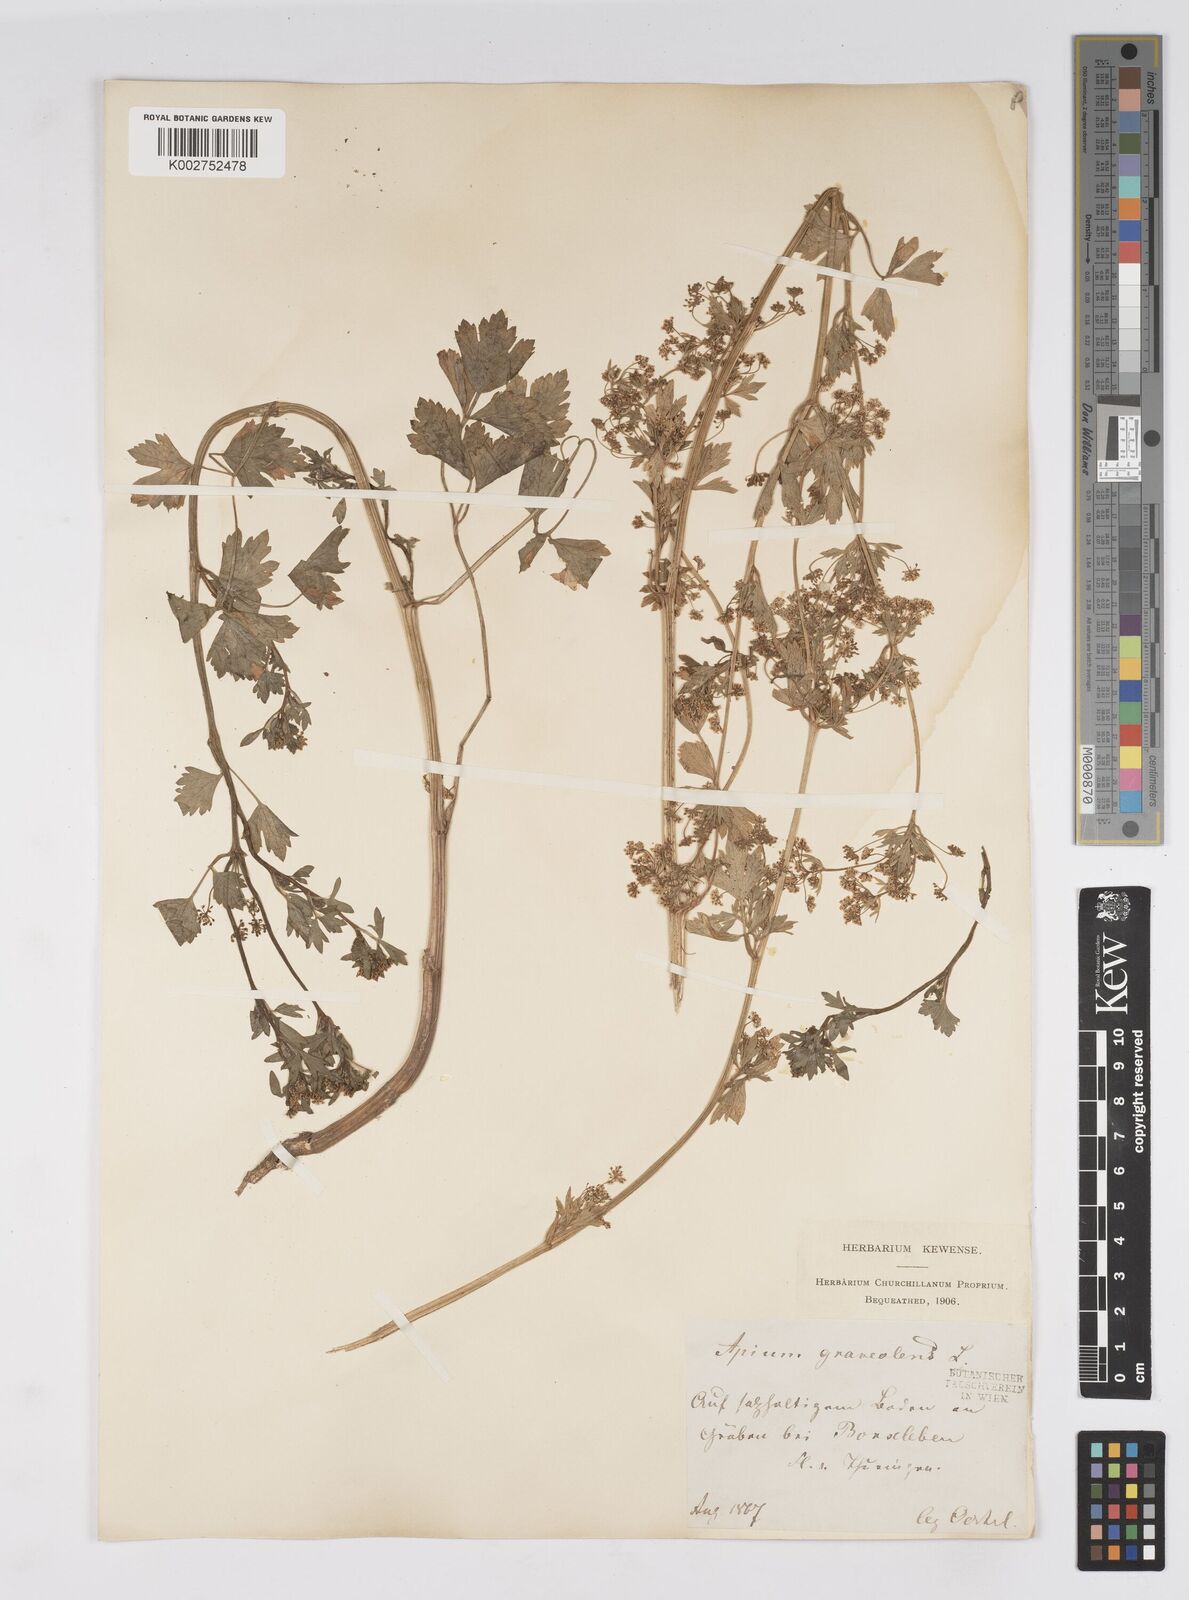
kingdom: Plantae
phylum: Tracheophyta
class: Magnoliopsida
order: Apiales
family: Apiaceae
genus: Apium
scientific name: Apium graveolens
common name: Wild celery
